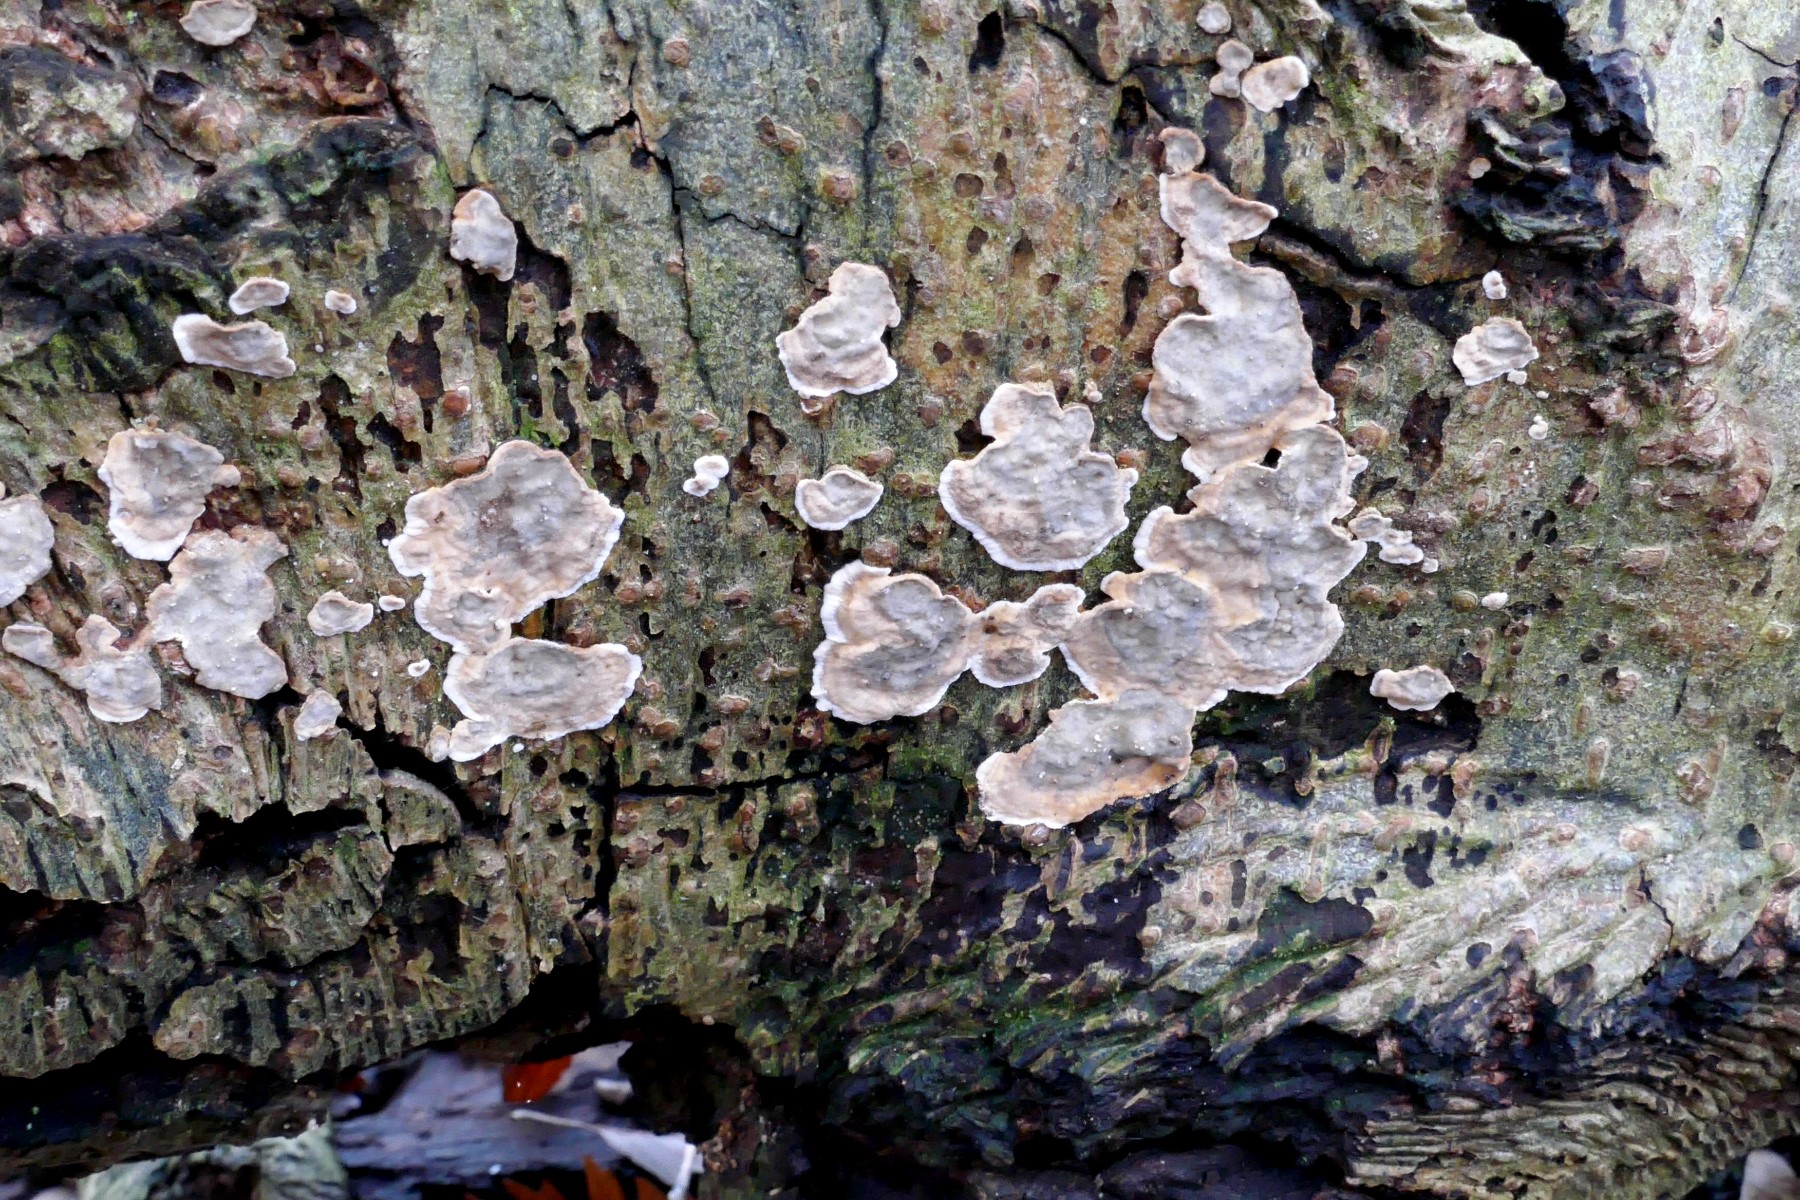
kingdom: Fungi
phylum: Basidiomycota
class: Agaricomycetes
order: Russulales
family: Stereaceae
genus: Stereum
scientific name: Stereum rugosum
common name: rynket lædersvamp
